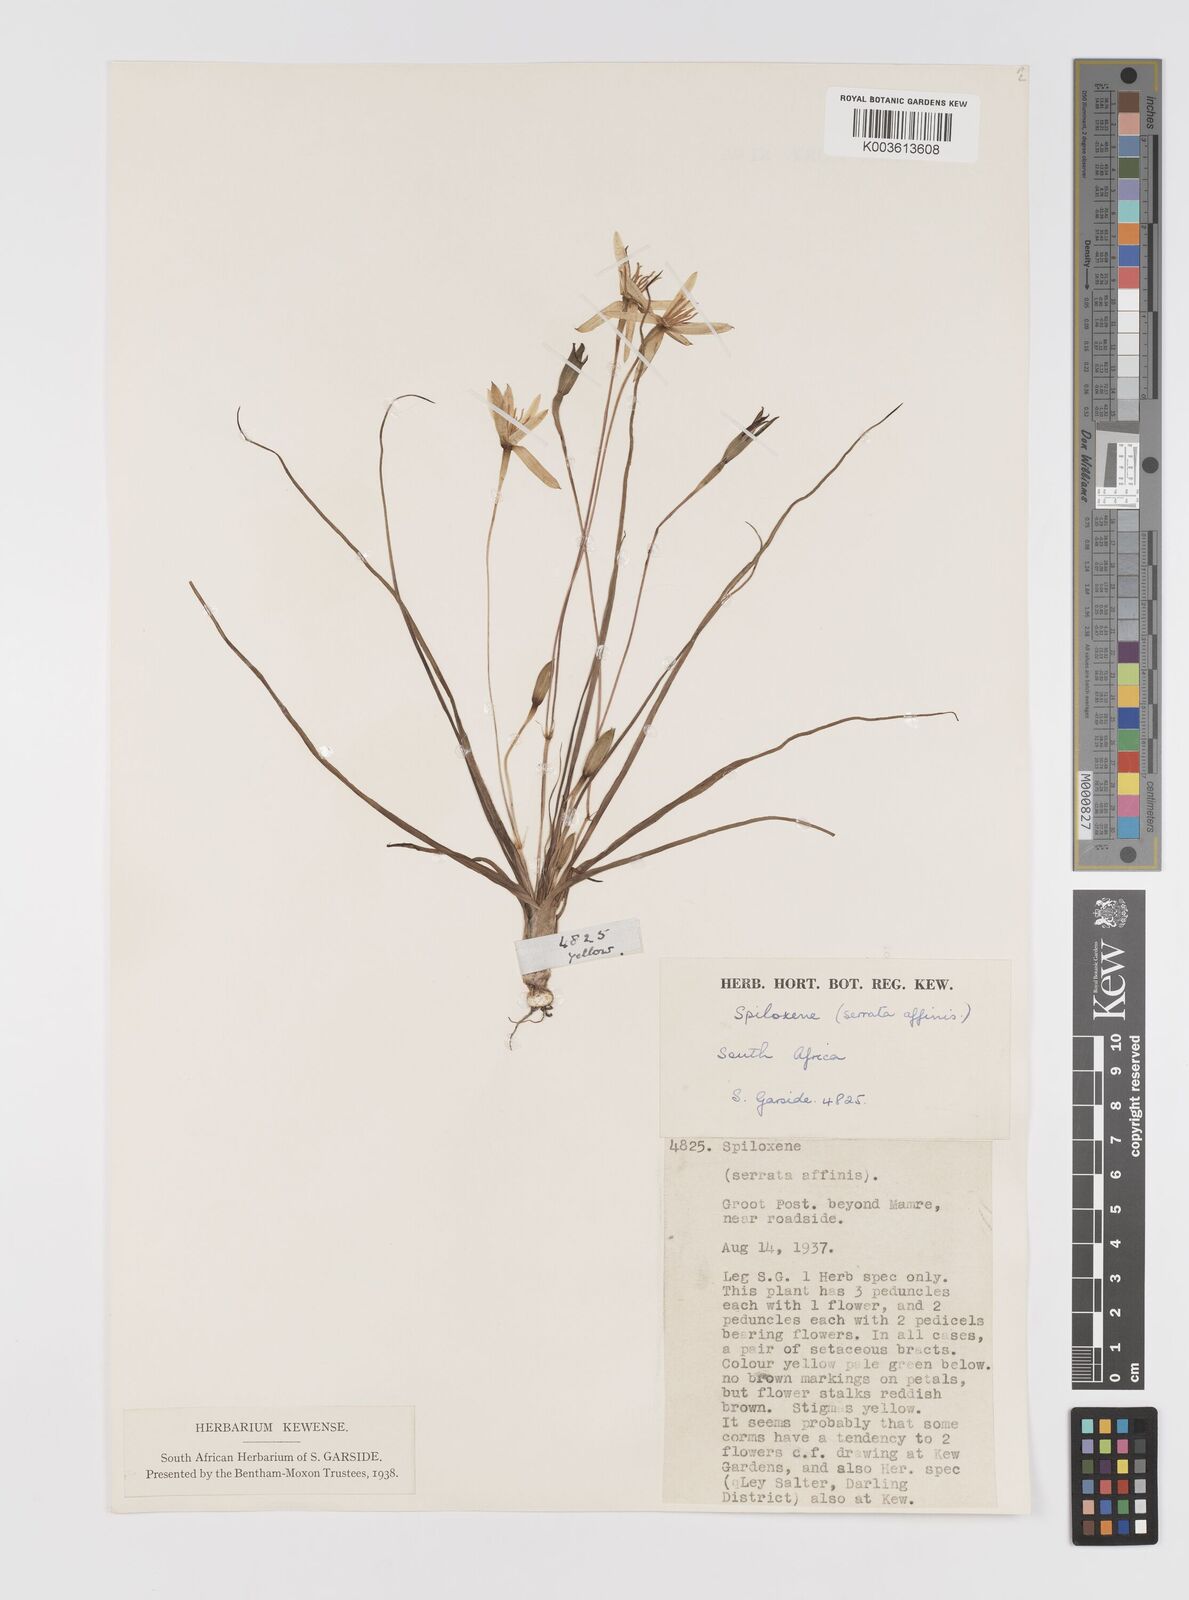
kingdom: Plantae
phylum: Tracheophyta
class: Liliopsida
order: Asparagales
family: Hypoxidaceae
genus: Pauridia
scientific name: Pauridia serrata
